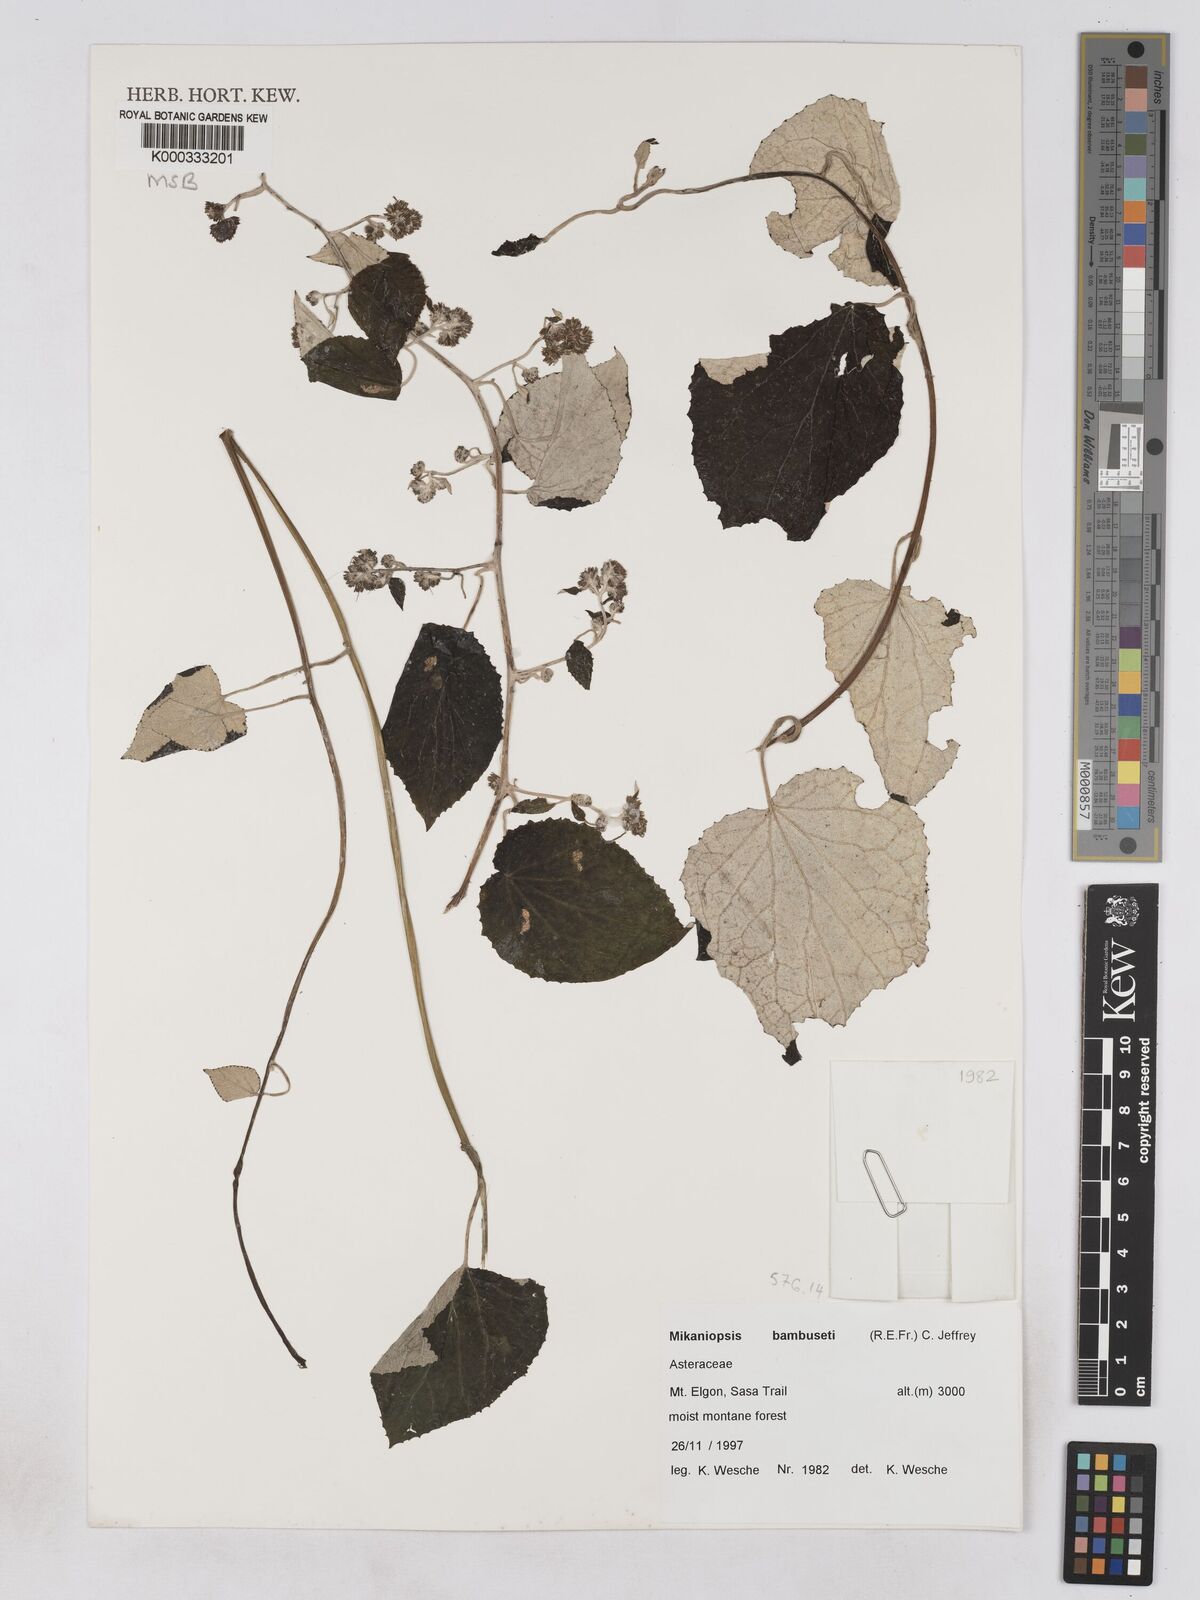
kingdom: Plantae
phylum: Tracheophyta
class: Magnoliopsida
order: Asterales
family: Asteraceae
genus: Mikaniopsis
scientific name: Mikaniopsis bambuseti
